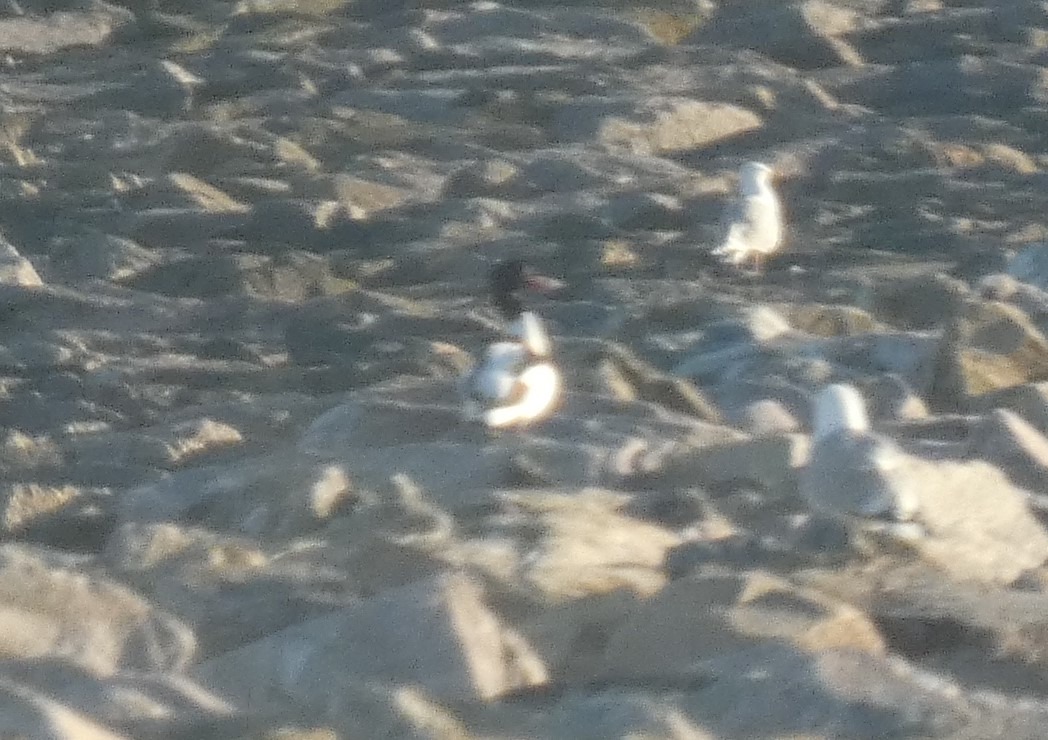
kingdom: Animalia
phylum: Chordata
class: Aves
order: Anseriformes
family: Anatidae
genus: Tadorna
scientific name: Tadorna tadorna
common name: Gravand
